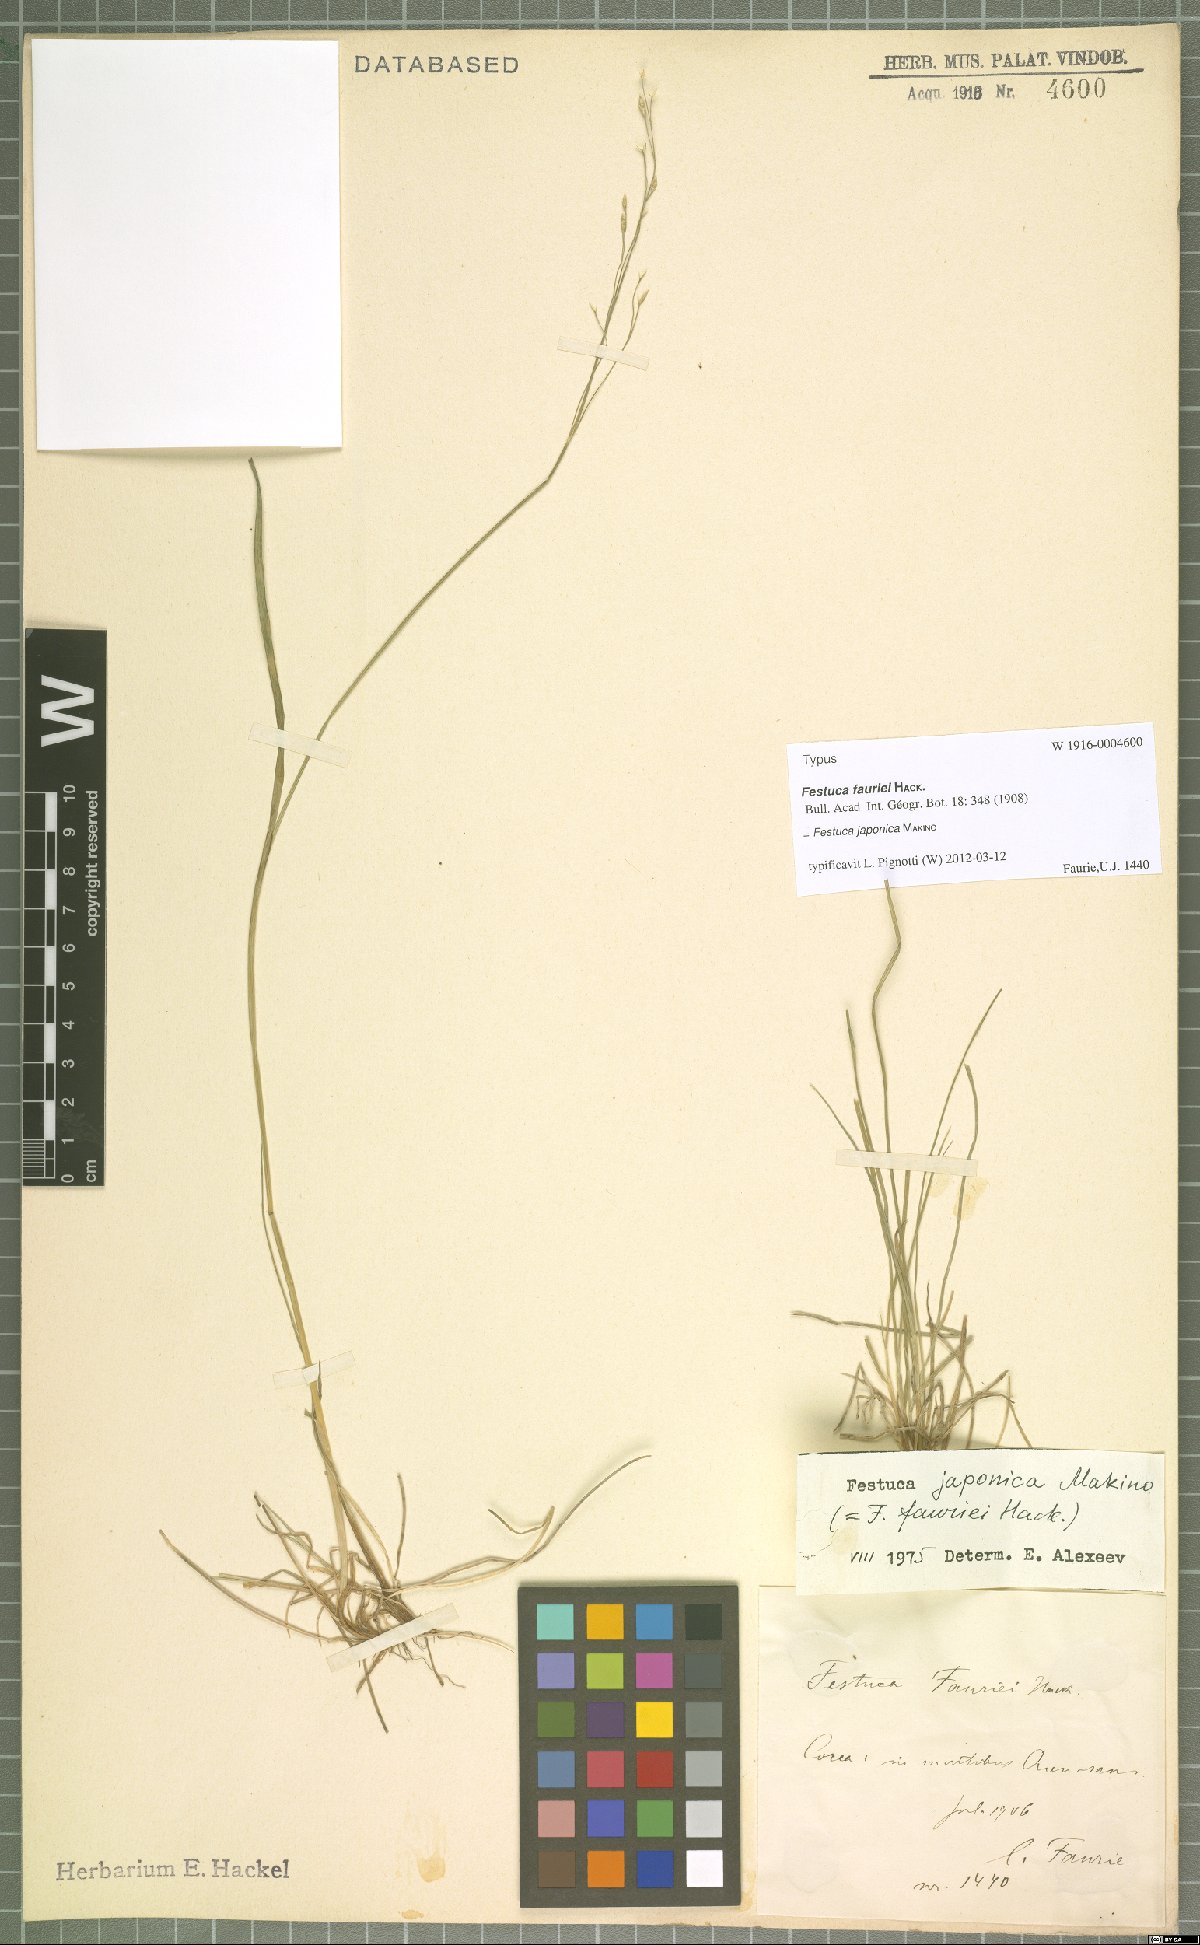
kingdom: Plantae
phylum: Tracheophyta
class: Liliopsida
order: Poales
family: Poaceae
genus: Festuca
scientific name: Festuca japonica
